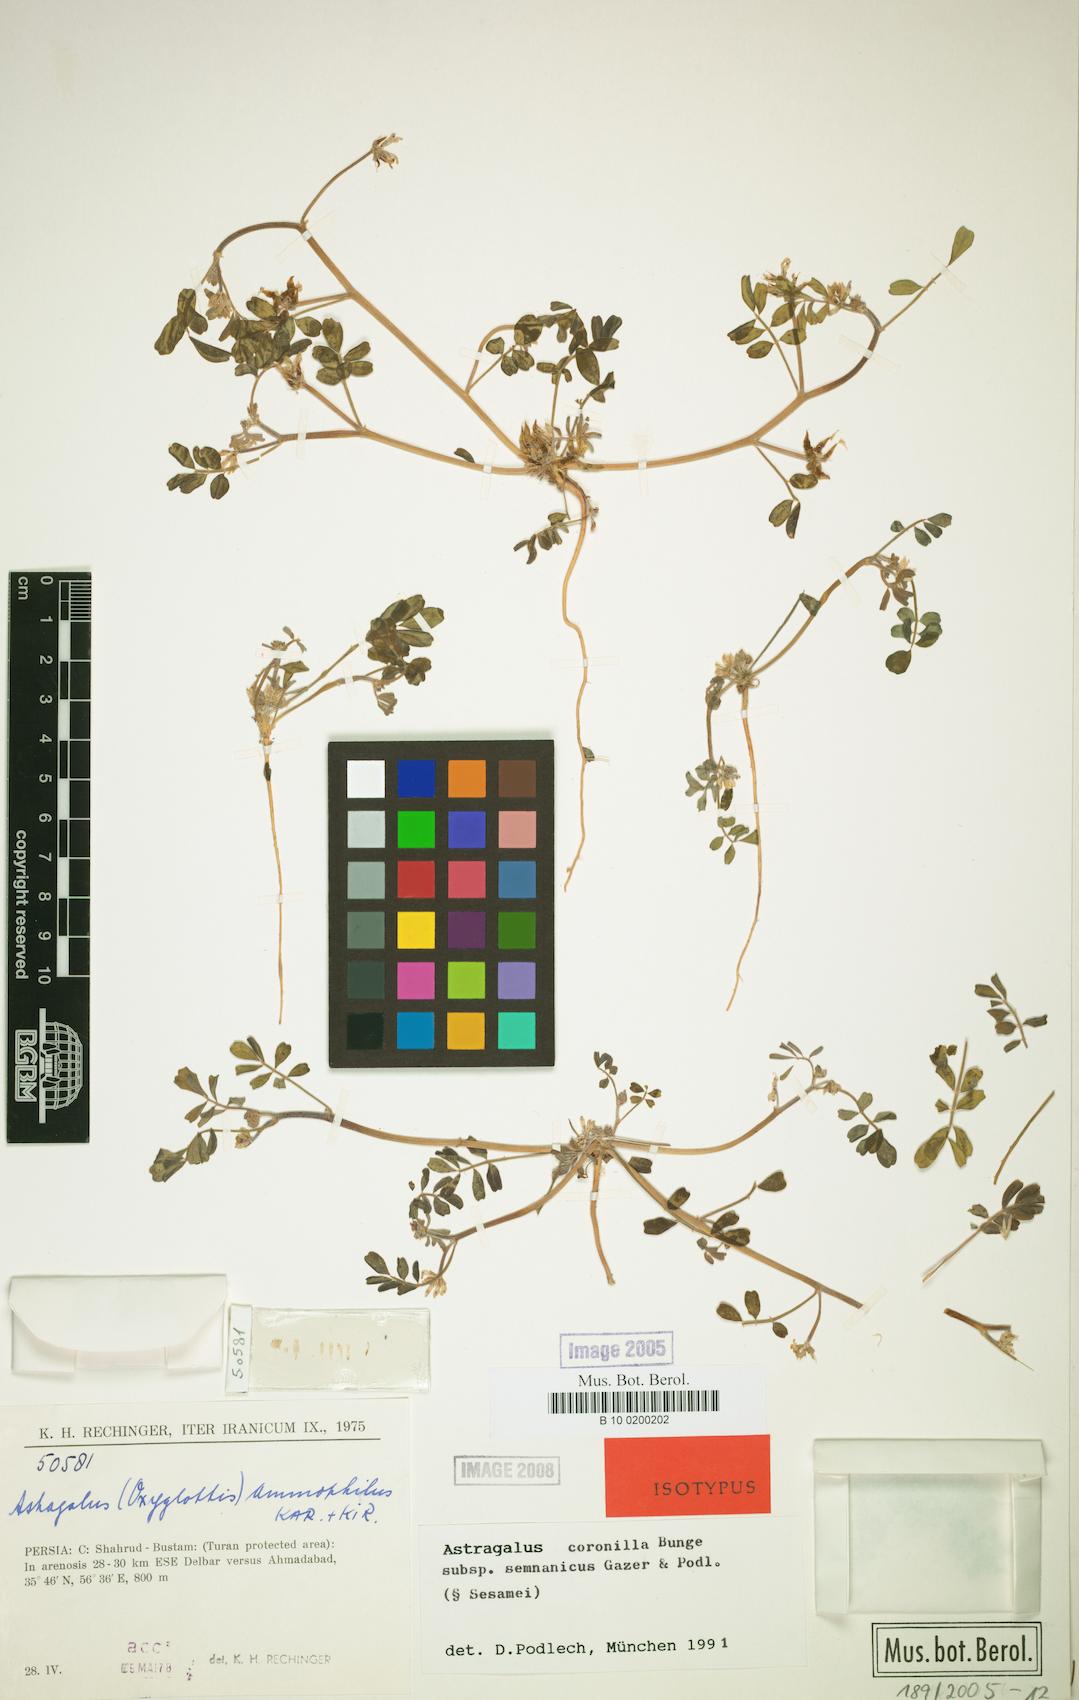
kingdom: Plantae
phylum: Tracheophyta
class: Magnoliopsida
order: Fabales
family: Fabaceae
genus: Astragalus
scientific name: Astragalus coronilla
